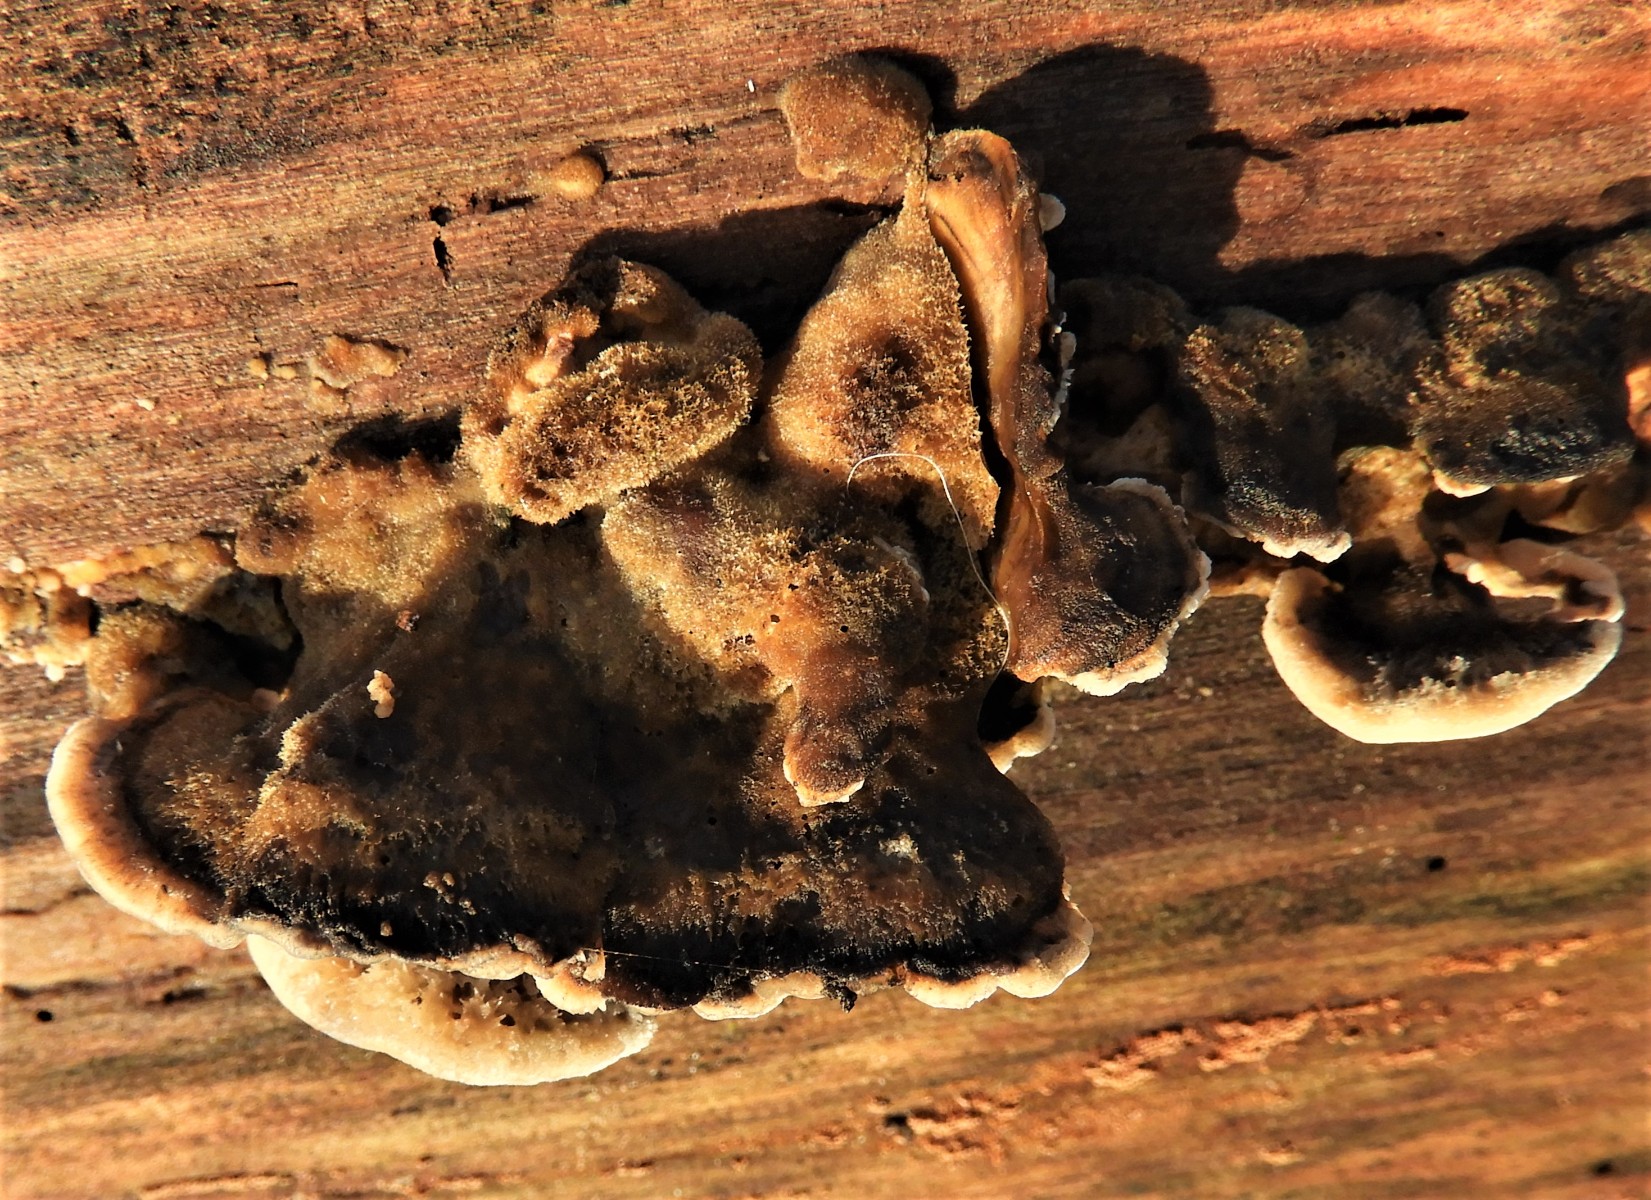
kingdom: Fungi
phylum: Basidiomycota
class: Agaricomycetes
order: Russulales
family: Hericiaceae
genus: Laxitextum
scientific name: Laxitextum bicolor
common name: tvefarvet filtskind
